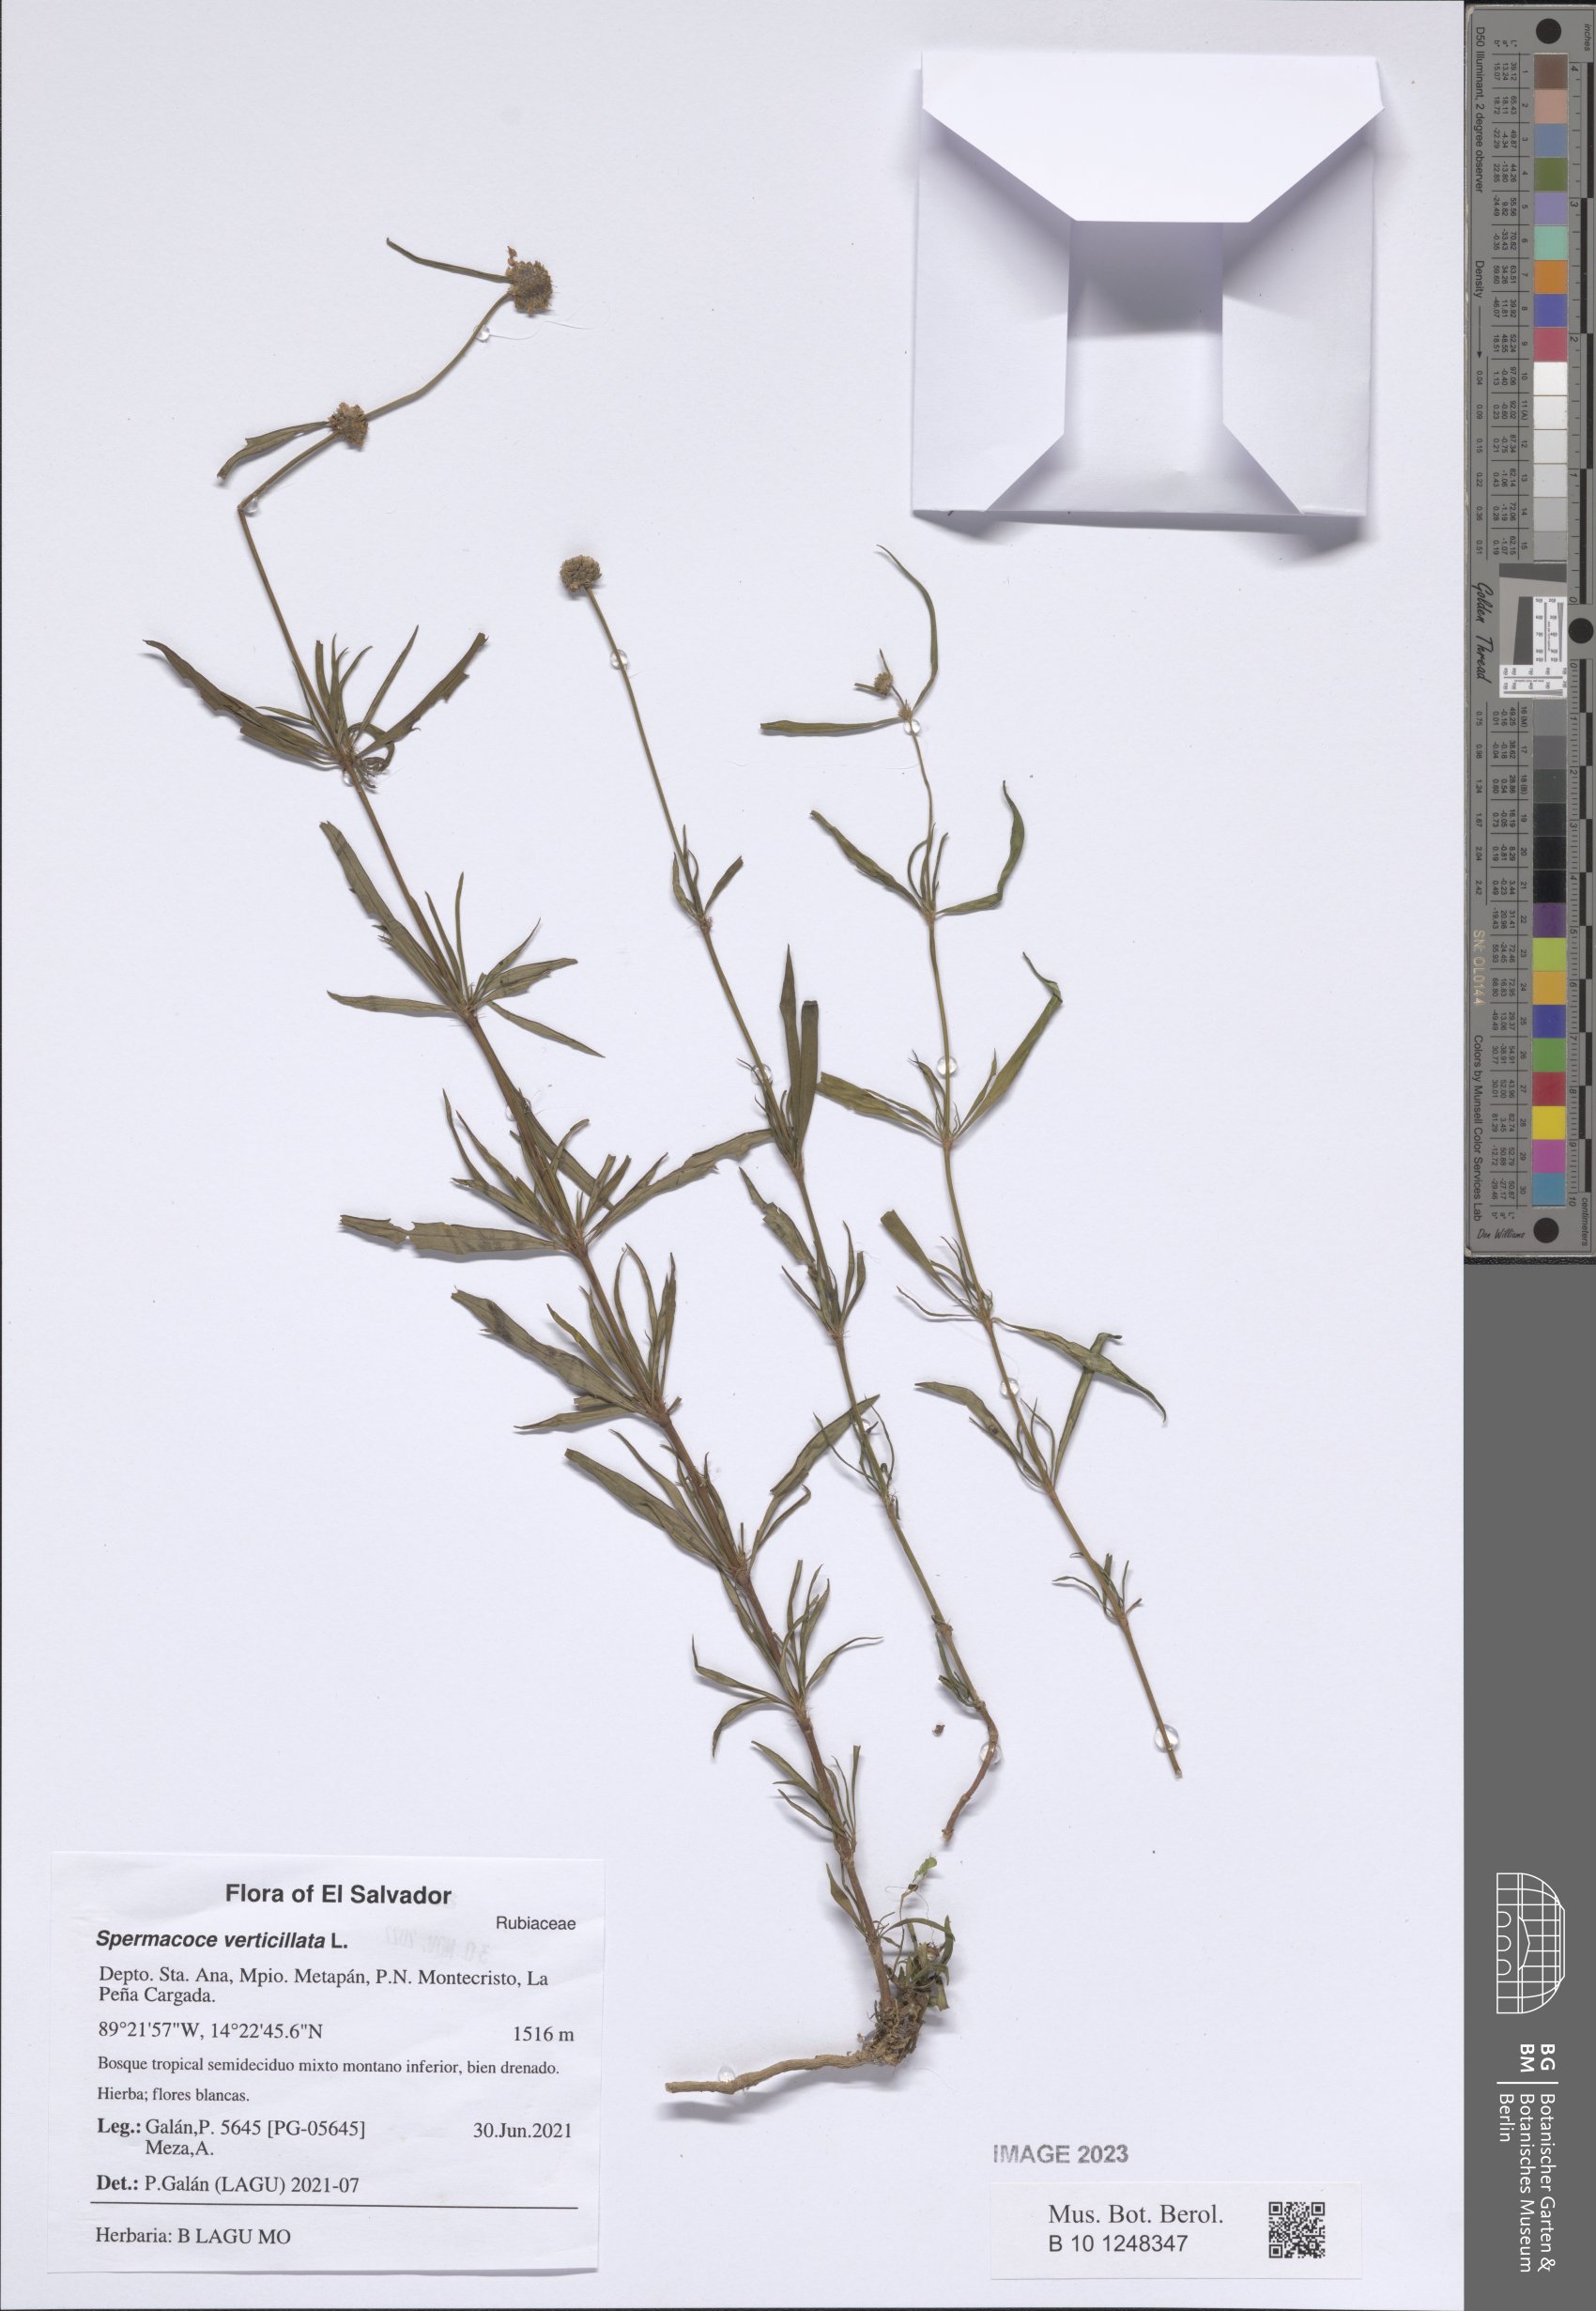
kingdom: Plantae
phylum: Tracheophyta
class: Magnoliopsida
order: Gentianales
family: Rubiaceae
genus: Spermacoce
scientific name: Spermacoce verticillata
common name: Shrubby false buttonweed
